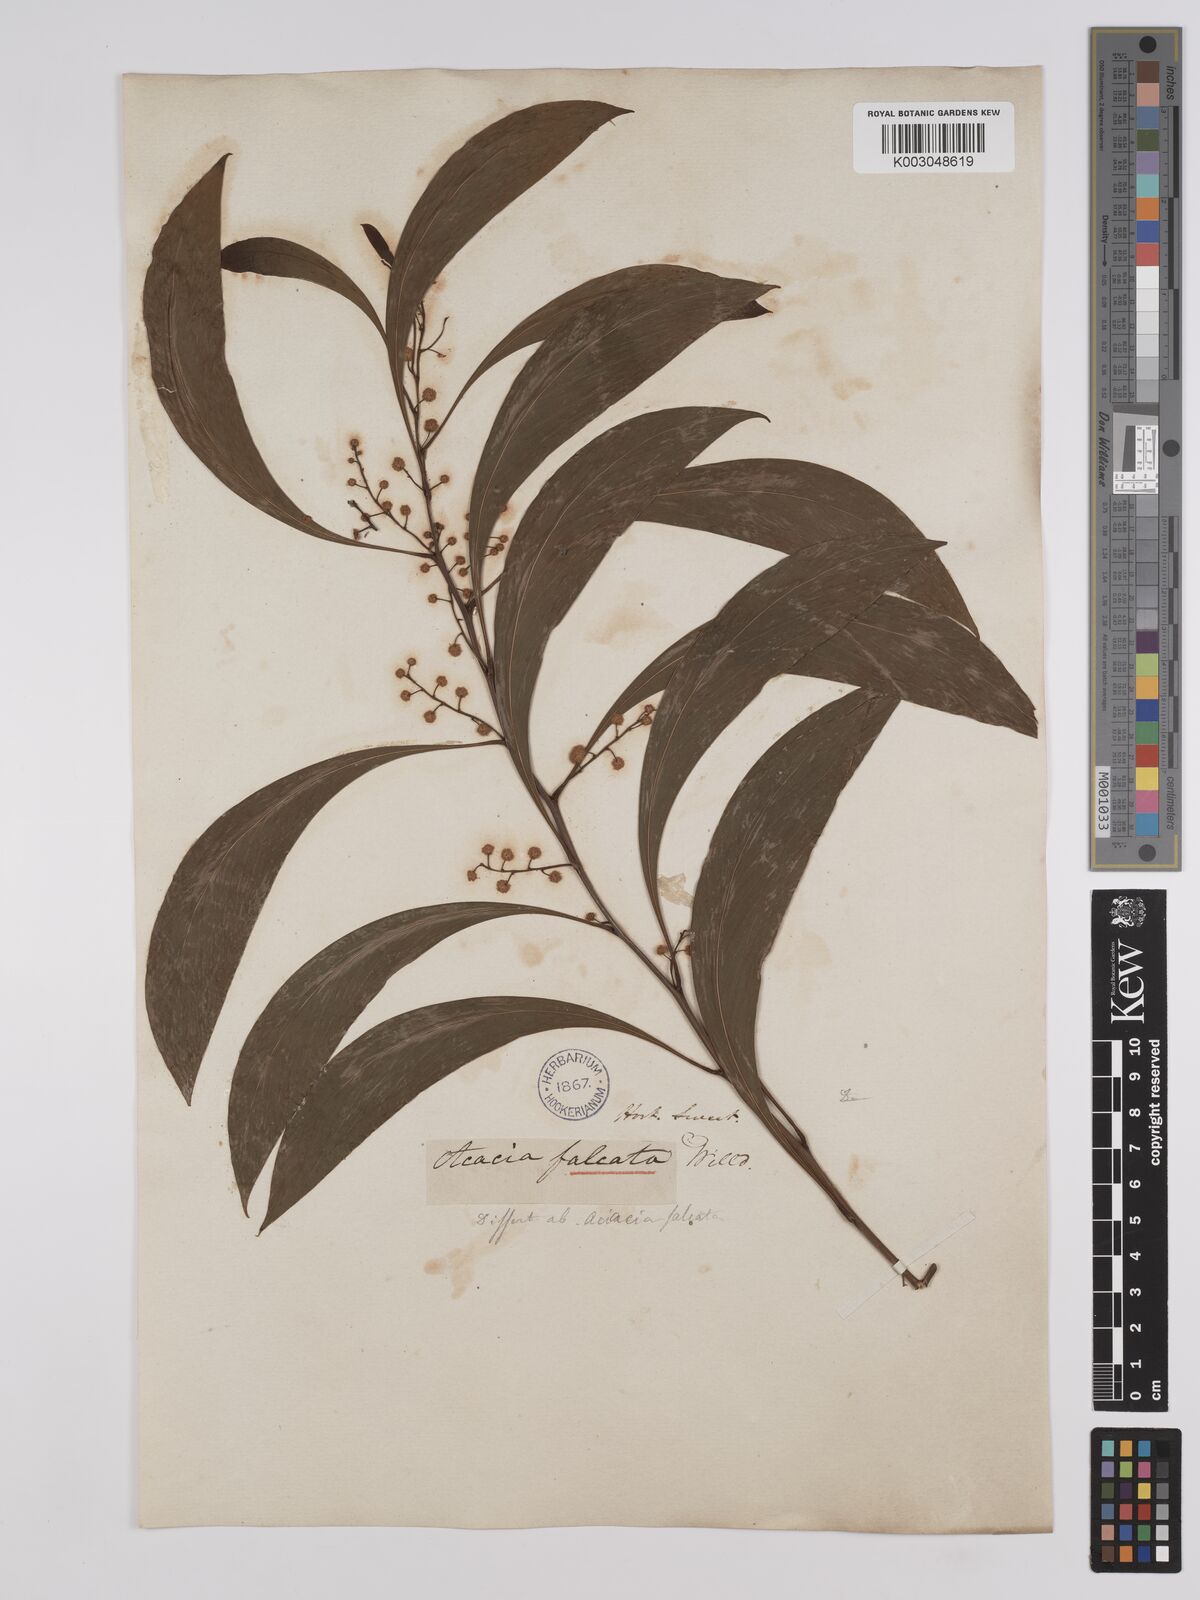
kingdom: Plantae
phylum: Tracheophyta
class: Magnoliopsida
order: Fabales
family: Fabaceae
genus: Acacia
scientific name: Acacia falcata
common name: Burra acacia
